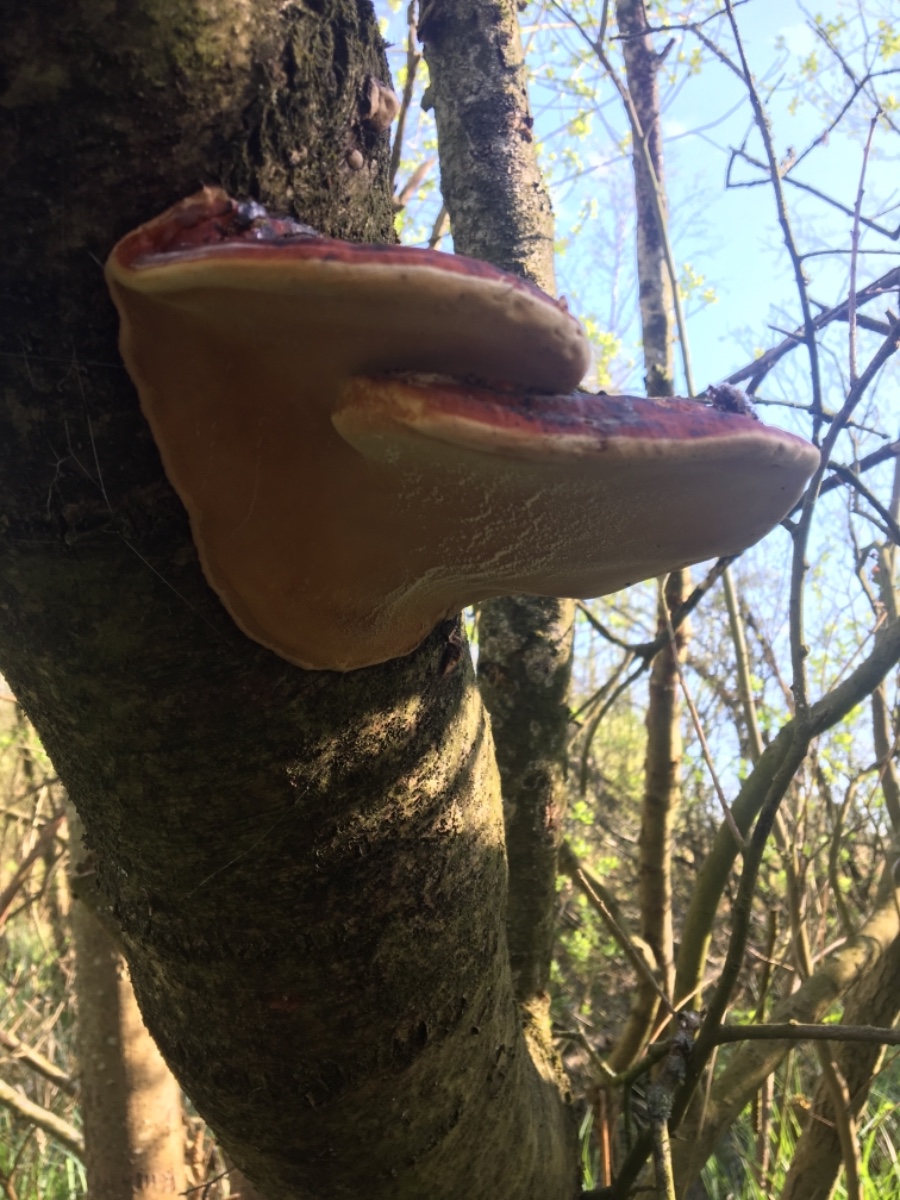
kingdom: Fungi
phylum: Basidiomycota
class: Agaricomycetes
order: Polyporales
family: Fomitopsidaceae
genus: Fomitopsis
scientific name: Fomitopsis pinicola
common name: randbæltet hovporesvamp
